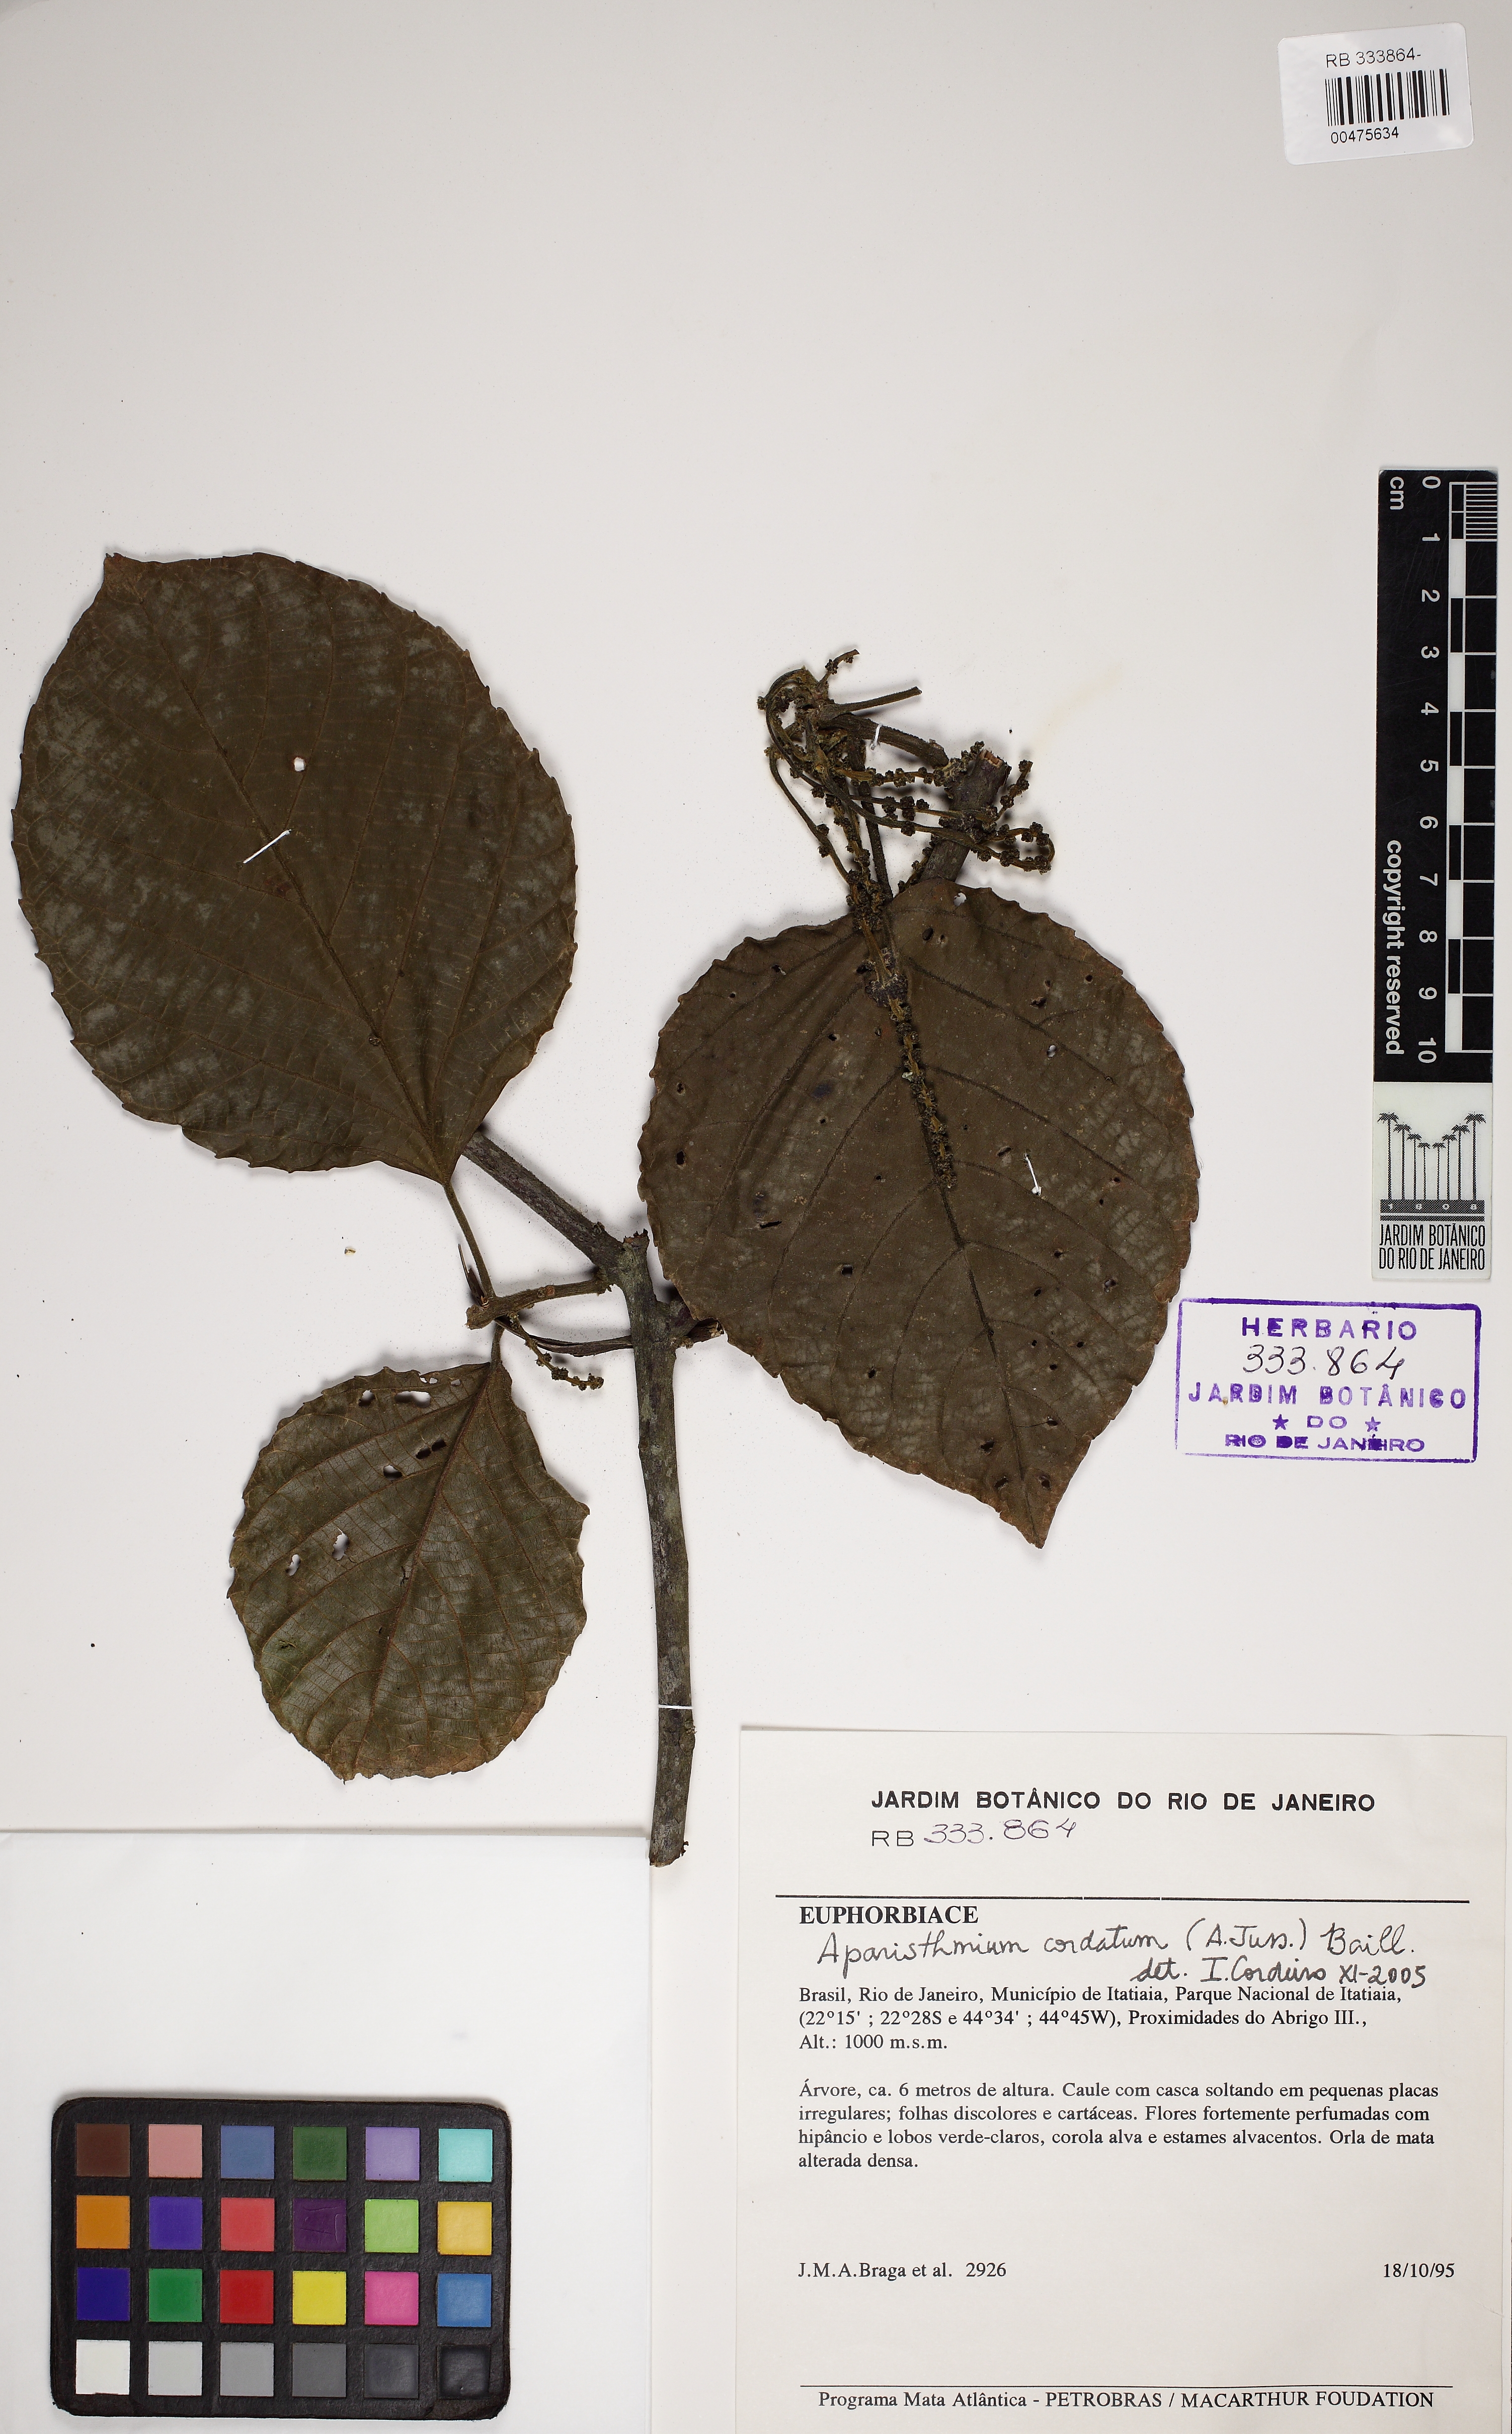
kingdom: Plantae
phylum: Tracheophyta
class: Magnoliopsida
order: Malpighiales
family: Euphorbiaceae
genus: Aparisthmium
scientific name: Aparisthmium cordatum
